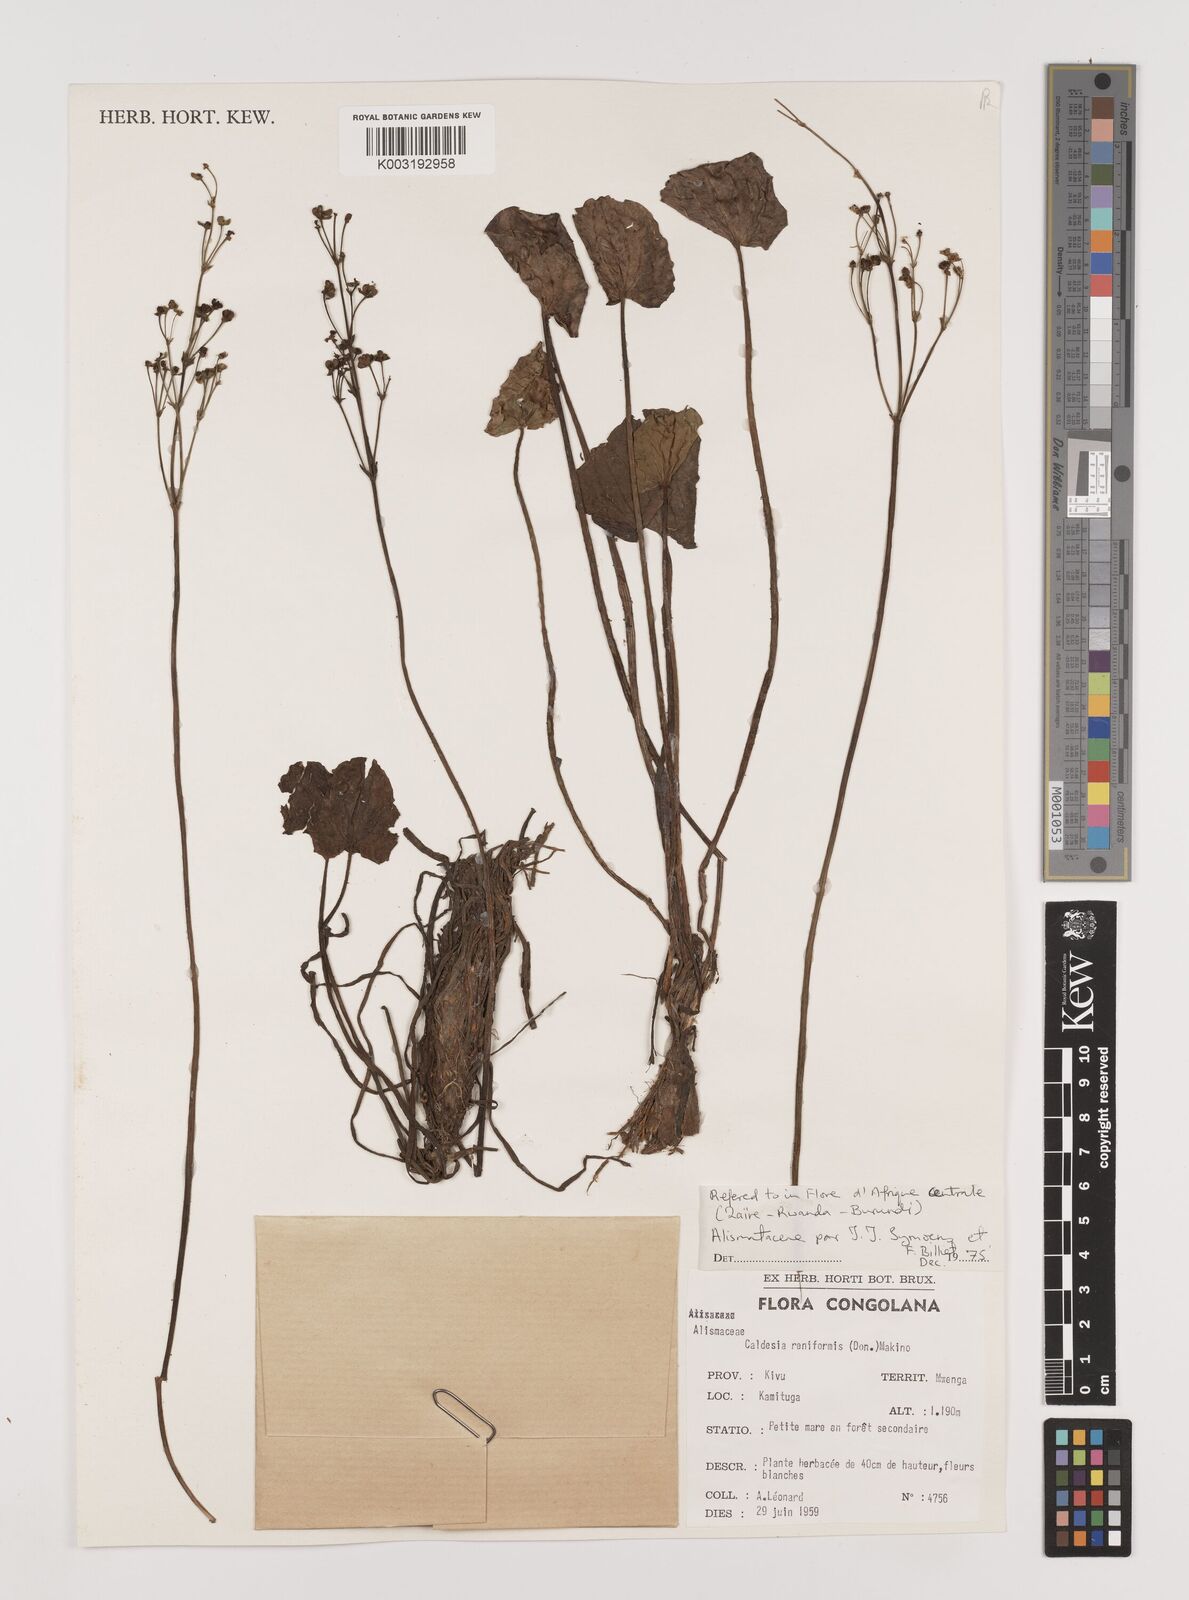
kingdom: Plantae
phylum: Tracheophyta
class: Liliopsida
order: Alismatales
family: Alismataceae
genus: Caldesia
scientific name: Caldesia parnassifolia
